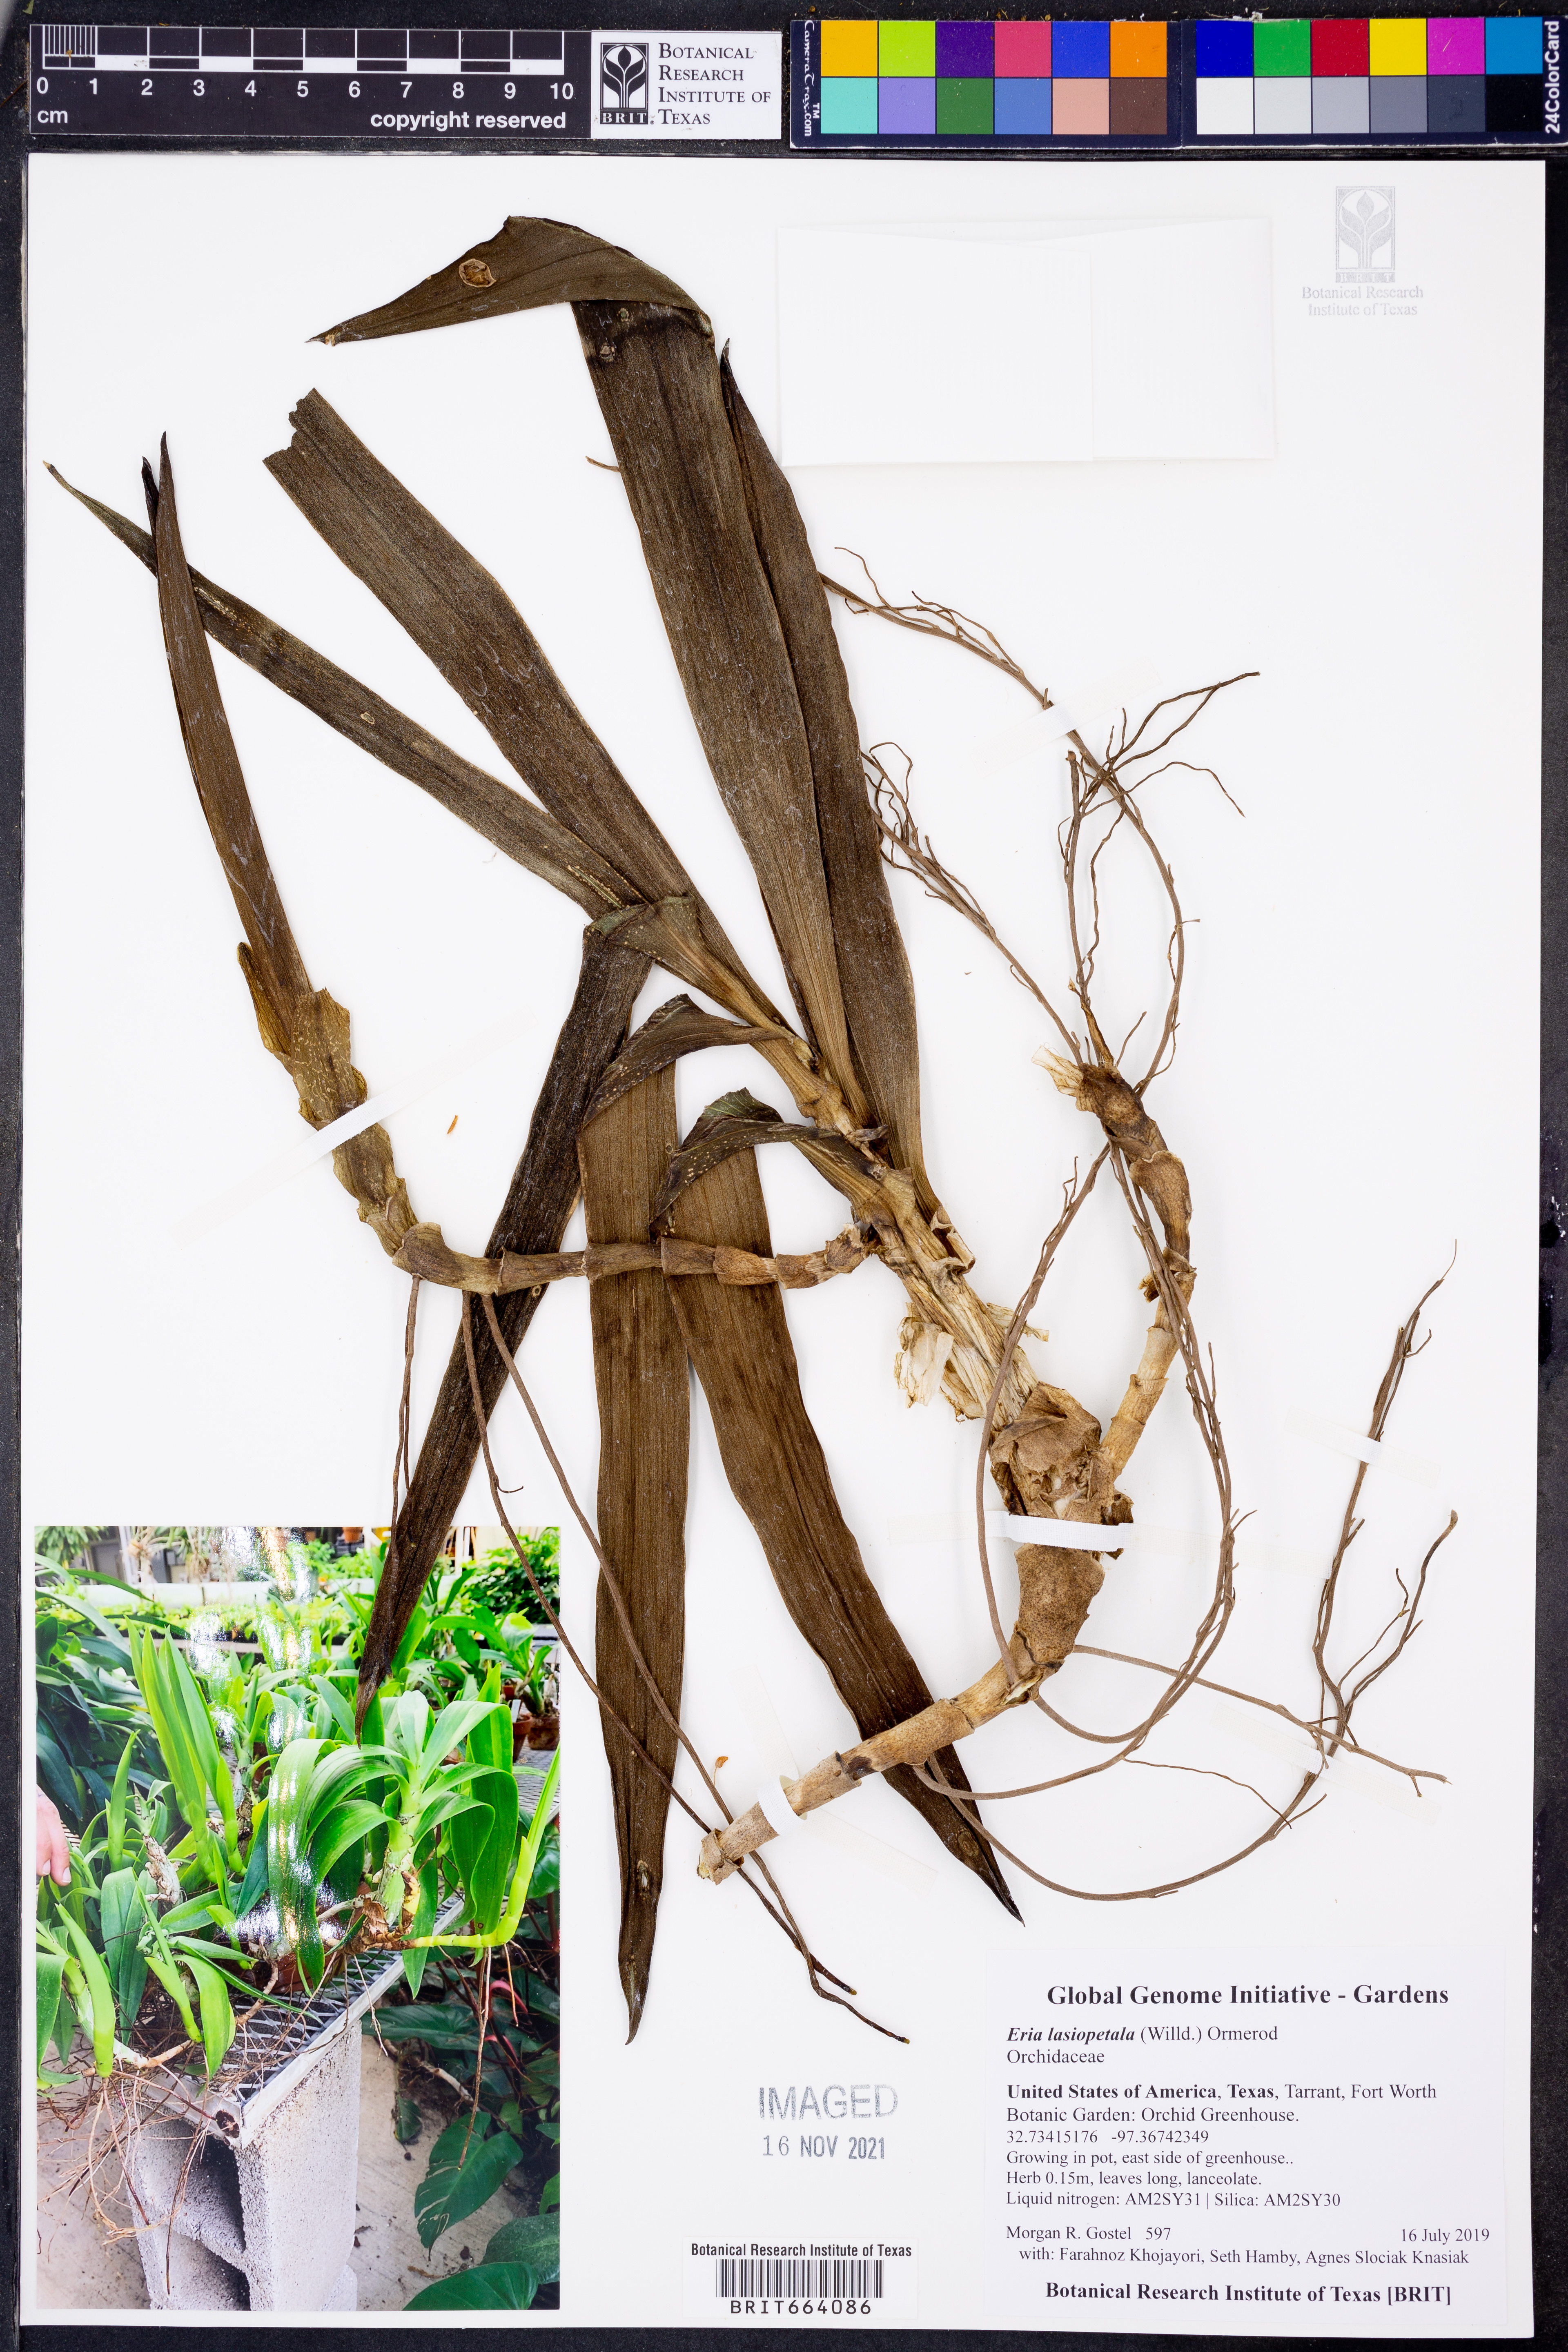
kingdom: Plantae
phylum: Tracheophyta
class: Liliopsida
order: Asparagales
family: Orchidaceae
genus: Dendrolirium
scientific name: Dendrolirium lasiopetalum
